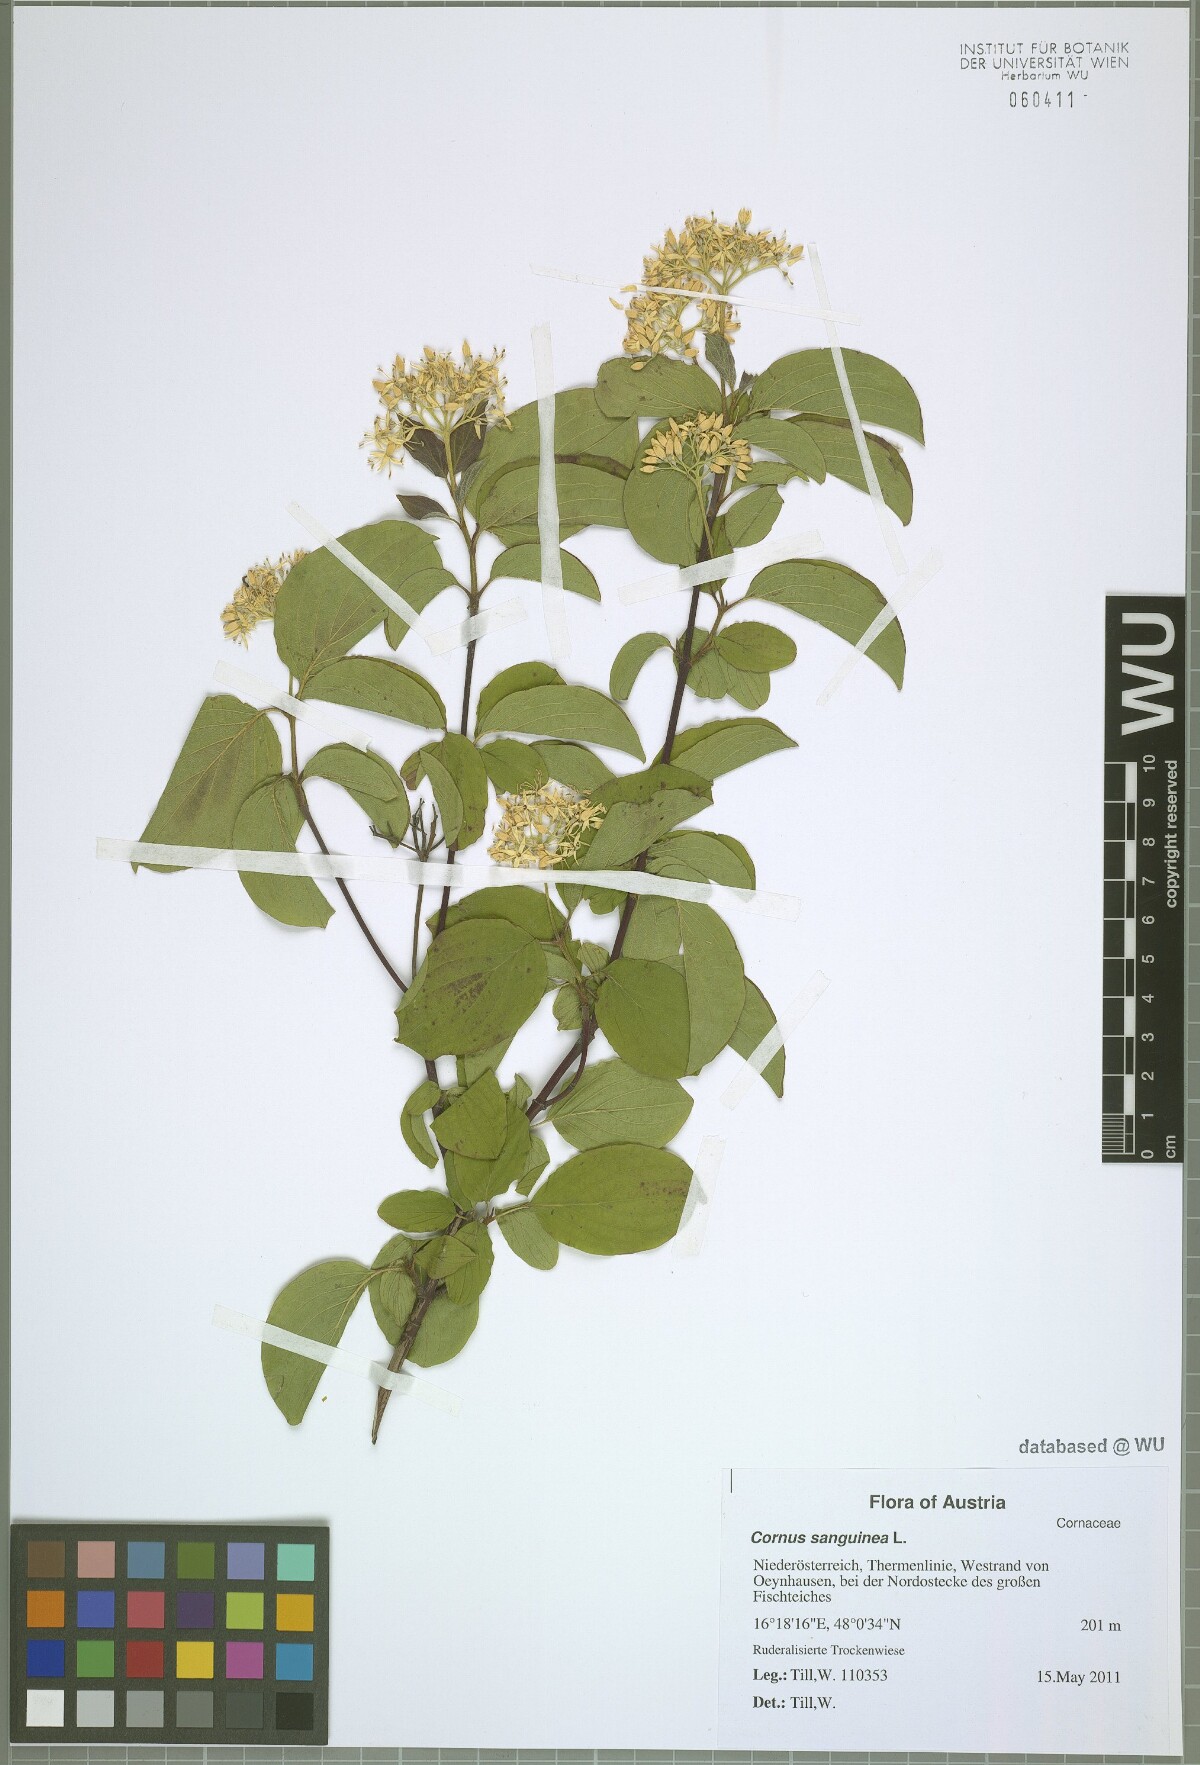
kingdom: Plantae
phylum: Tracheophyta
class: Magnoliopsida
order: Cornales
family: Cornaceae
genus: Cornus
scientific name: Cornus sanguinea
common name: Dogwood
